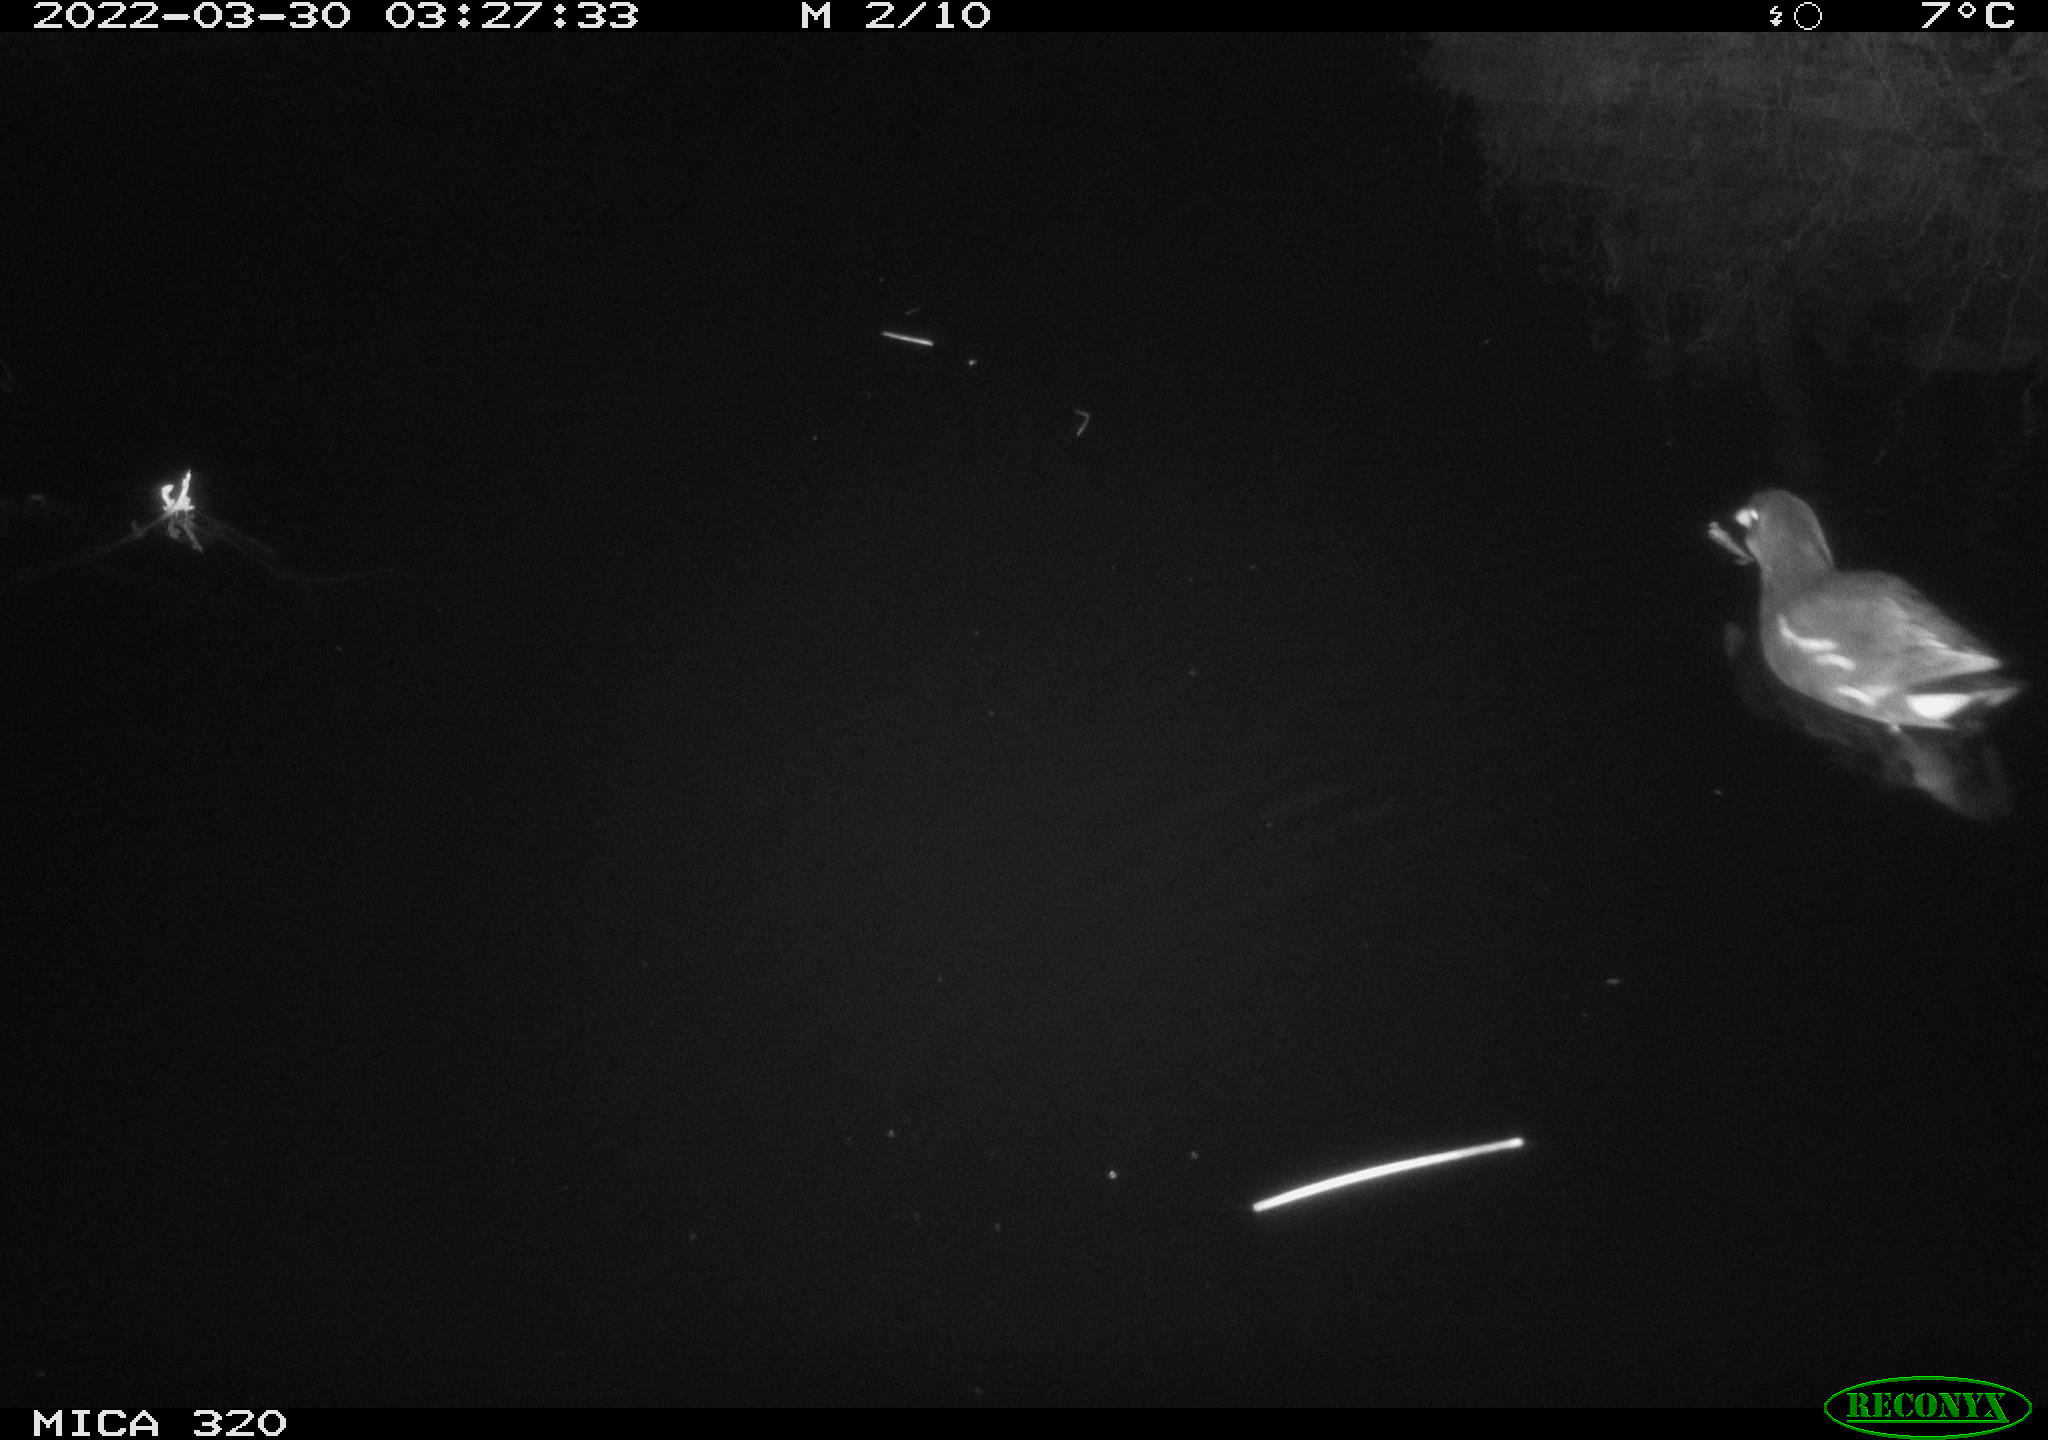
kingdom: Animalia
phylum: Chordata
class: Aves
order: Gruiformes
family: Rallidae
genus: Gallinula
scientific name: Gallinula chloropus
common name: Common moorhen
